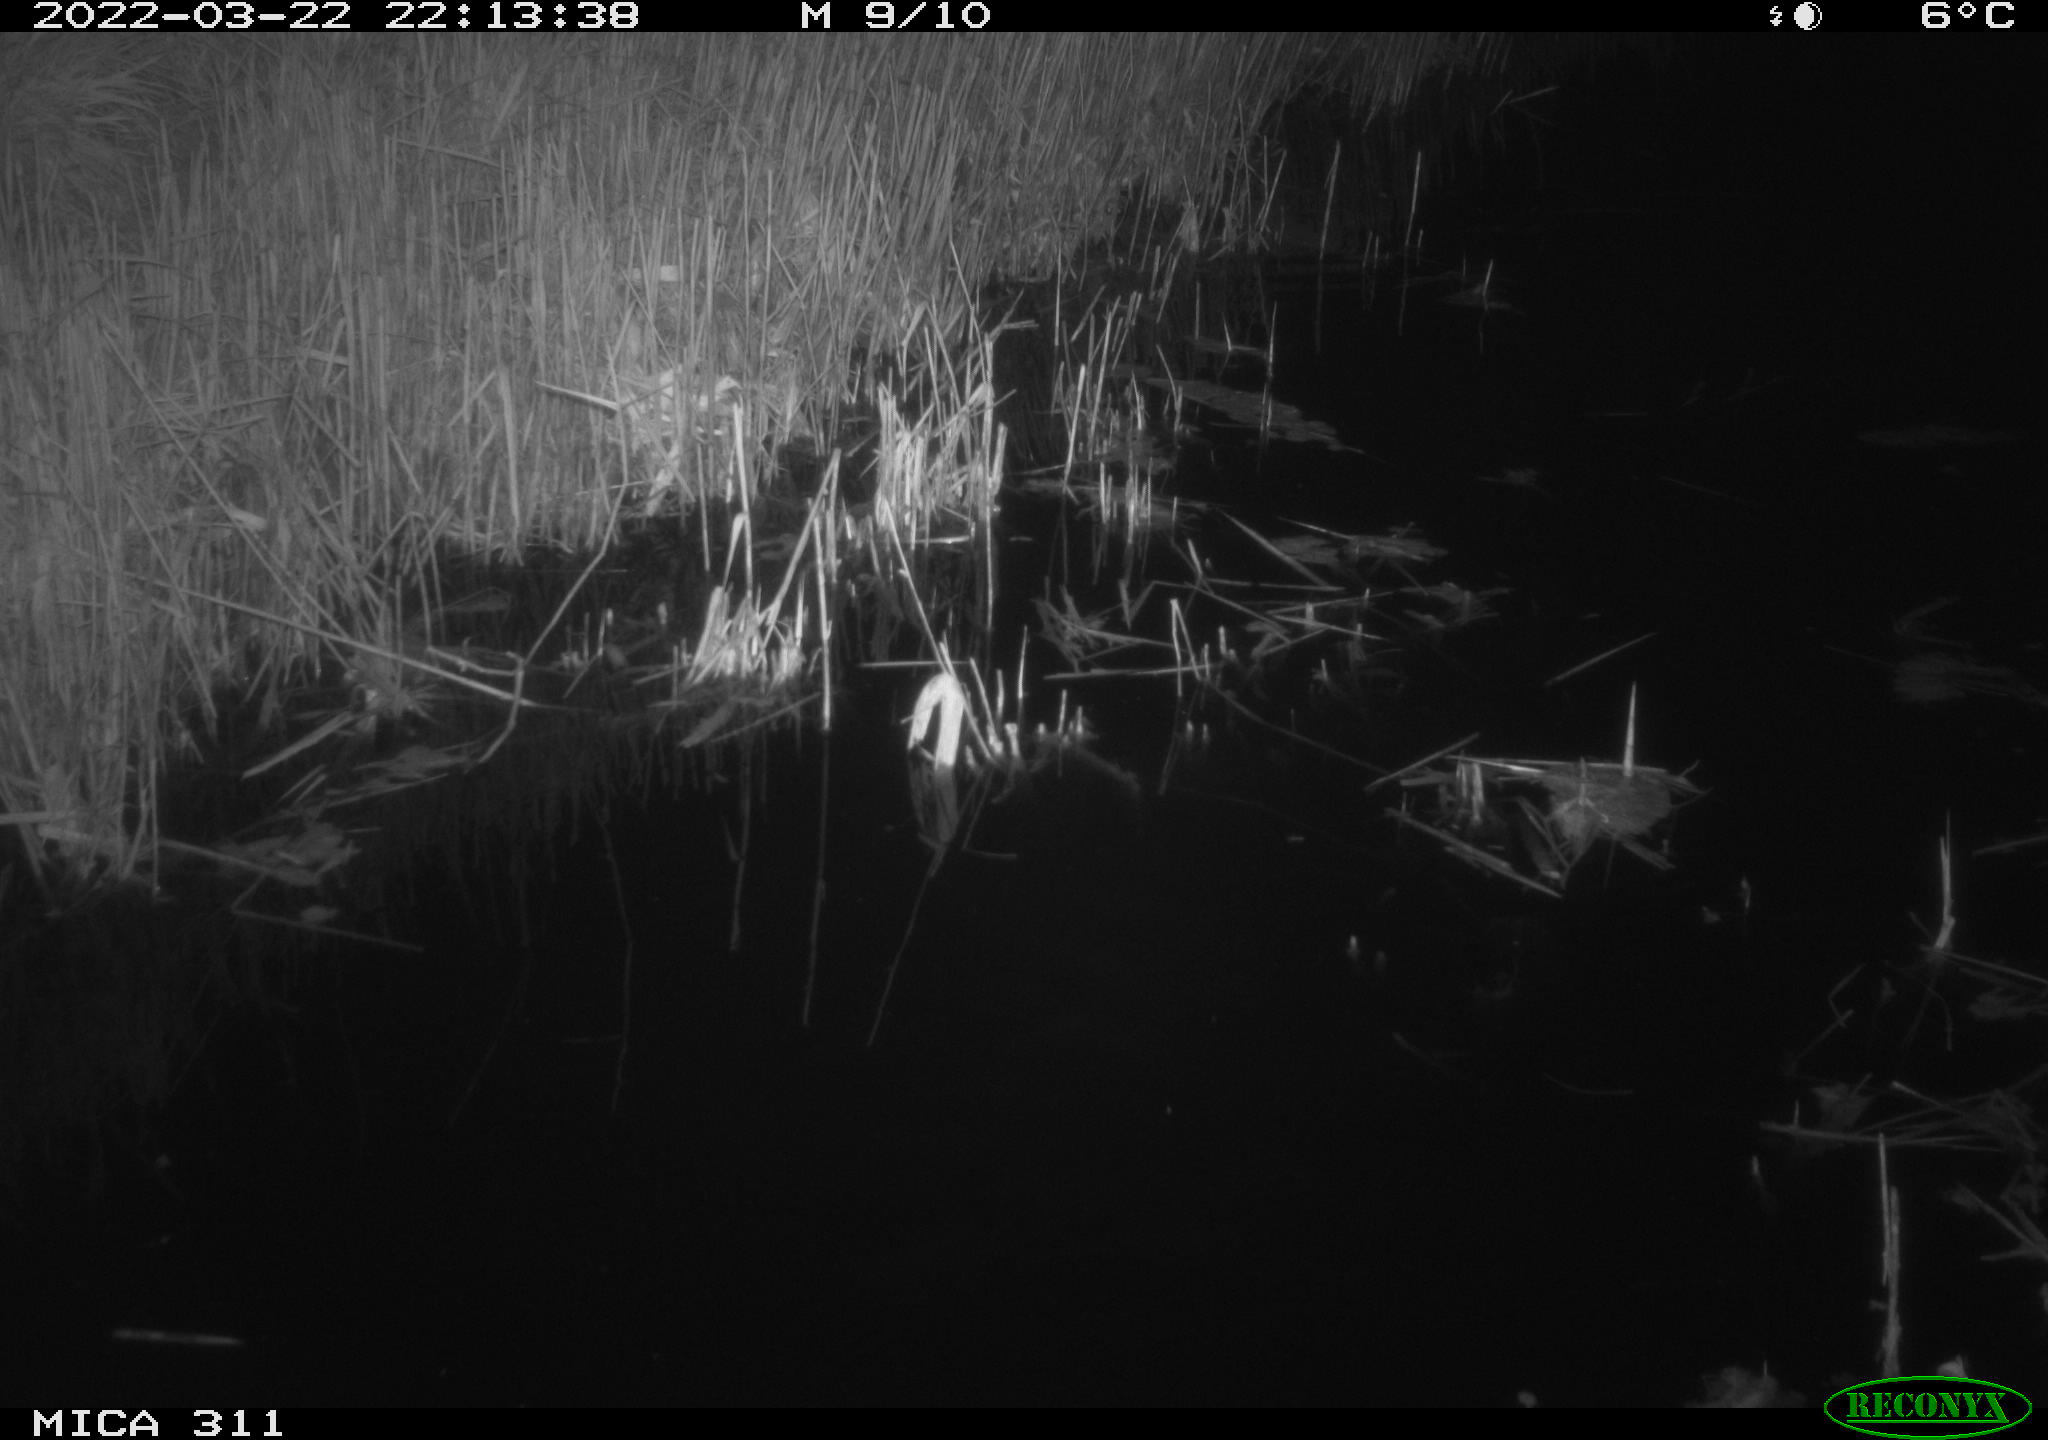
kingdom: Animalia
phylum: Chordata
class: Mammalia
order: Rodentia
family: Muridae
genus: Rattus
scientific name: Rattus norvegicus
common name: Brown rat
